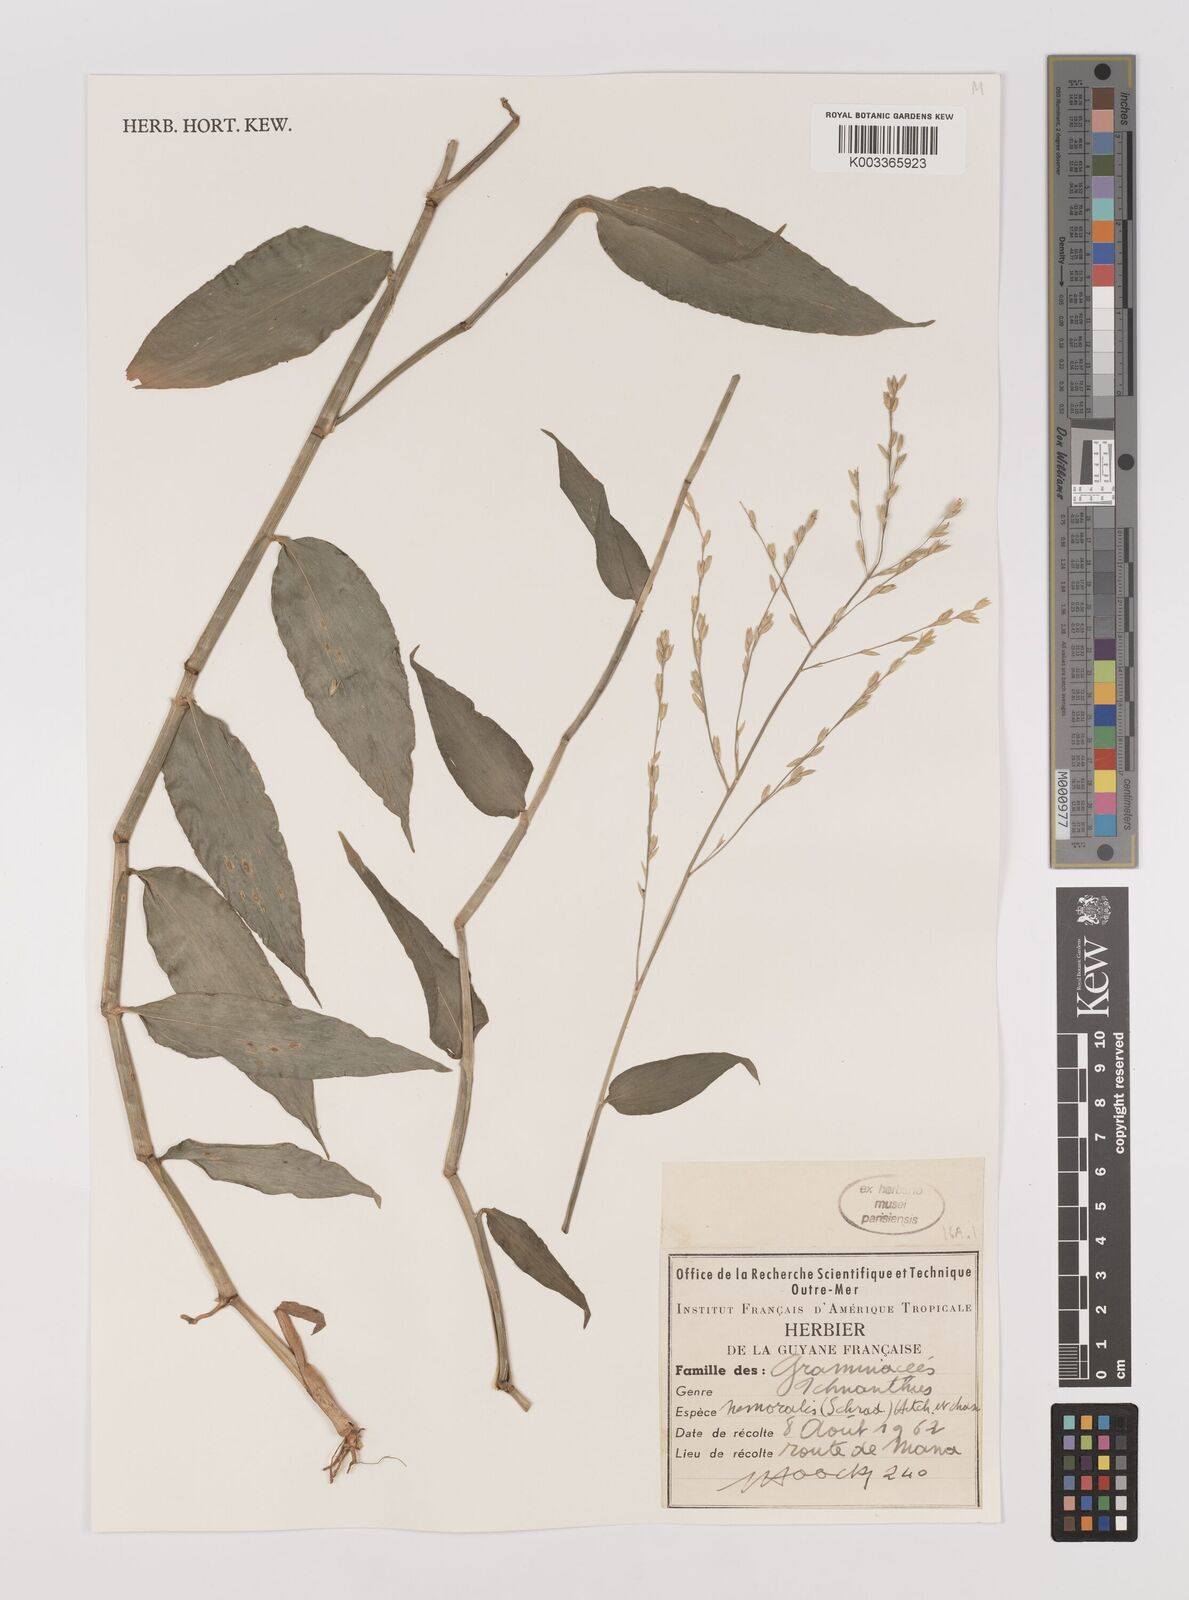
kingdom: Plantae
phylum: Tracheophyta
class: Liliopsida
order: Poales
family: Poaceae
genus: Ichnanthus
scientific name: Ichnanthus nemoralis
